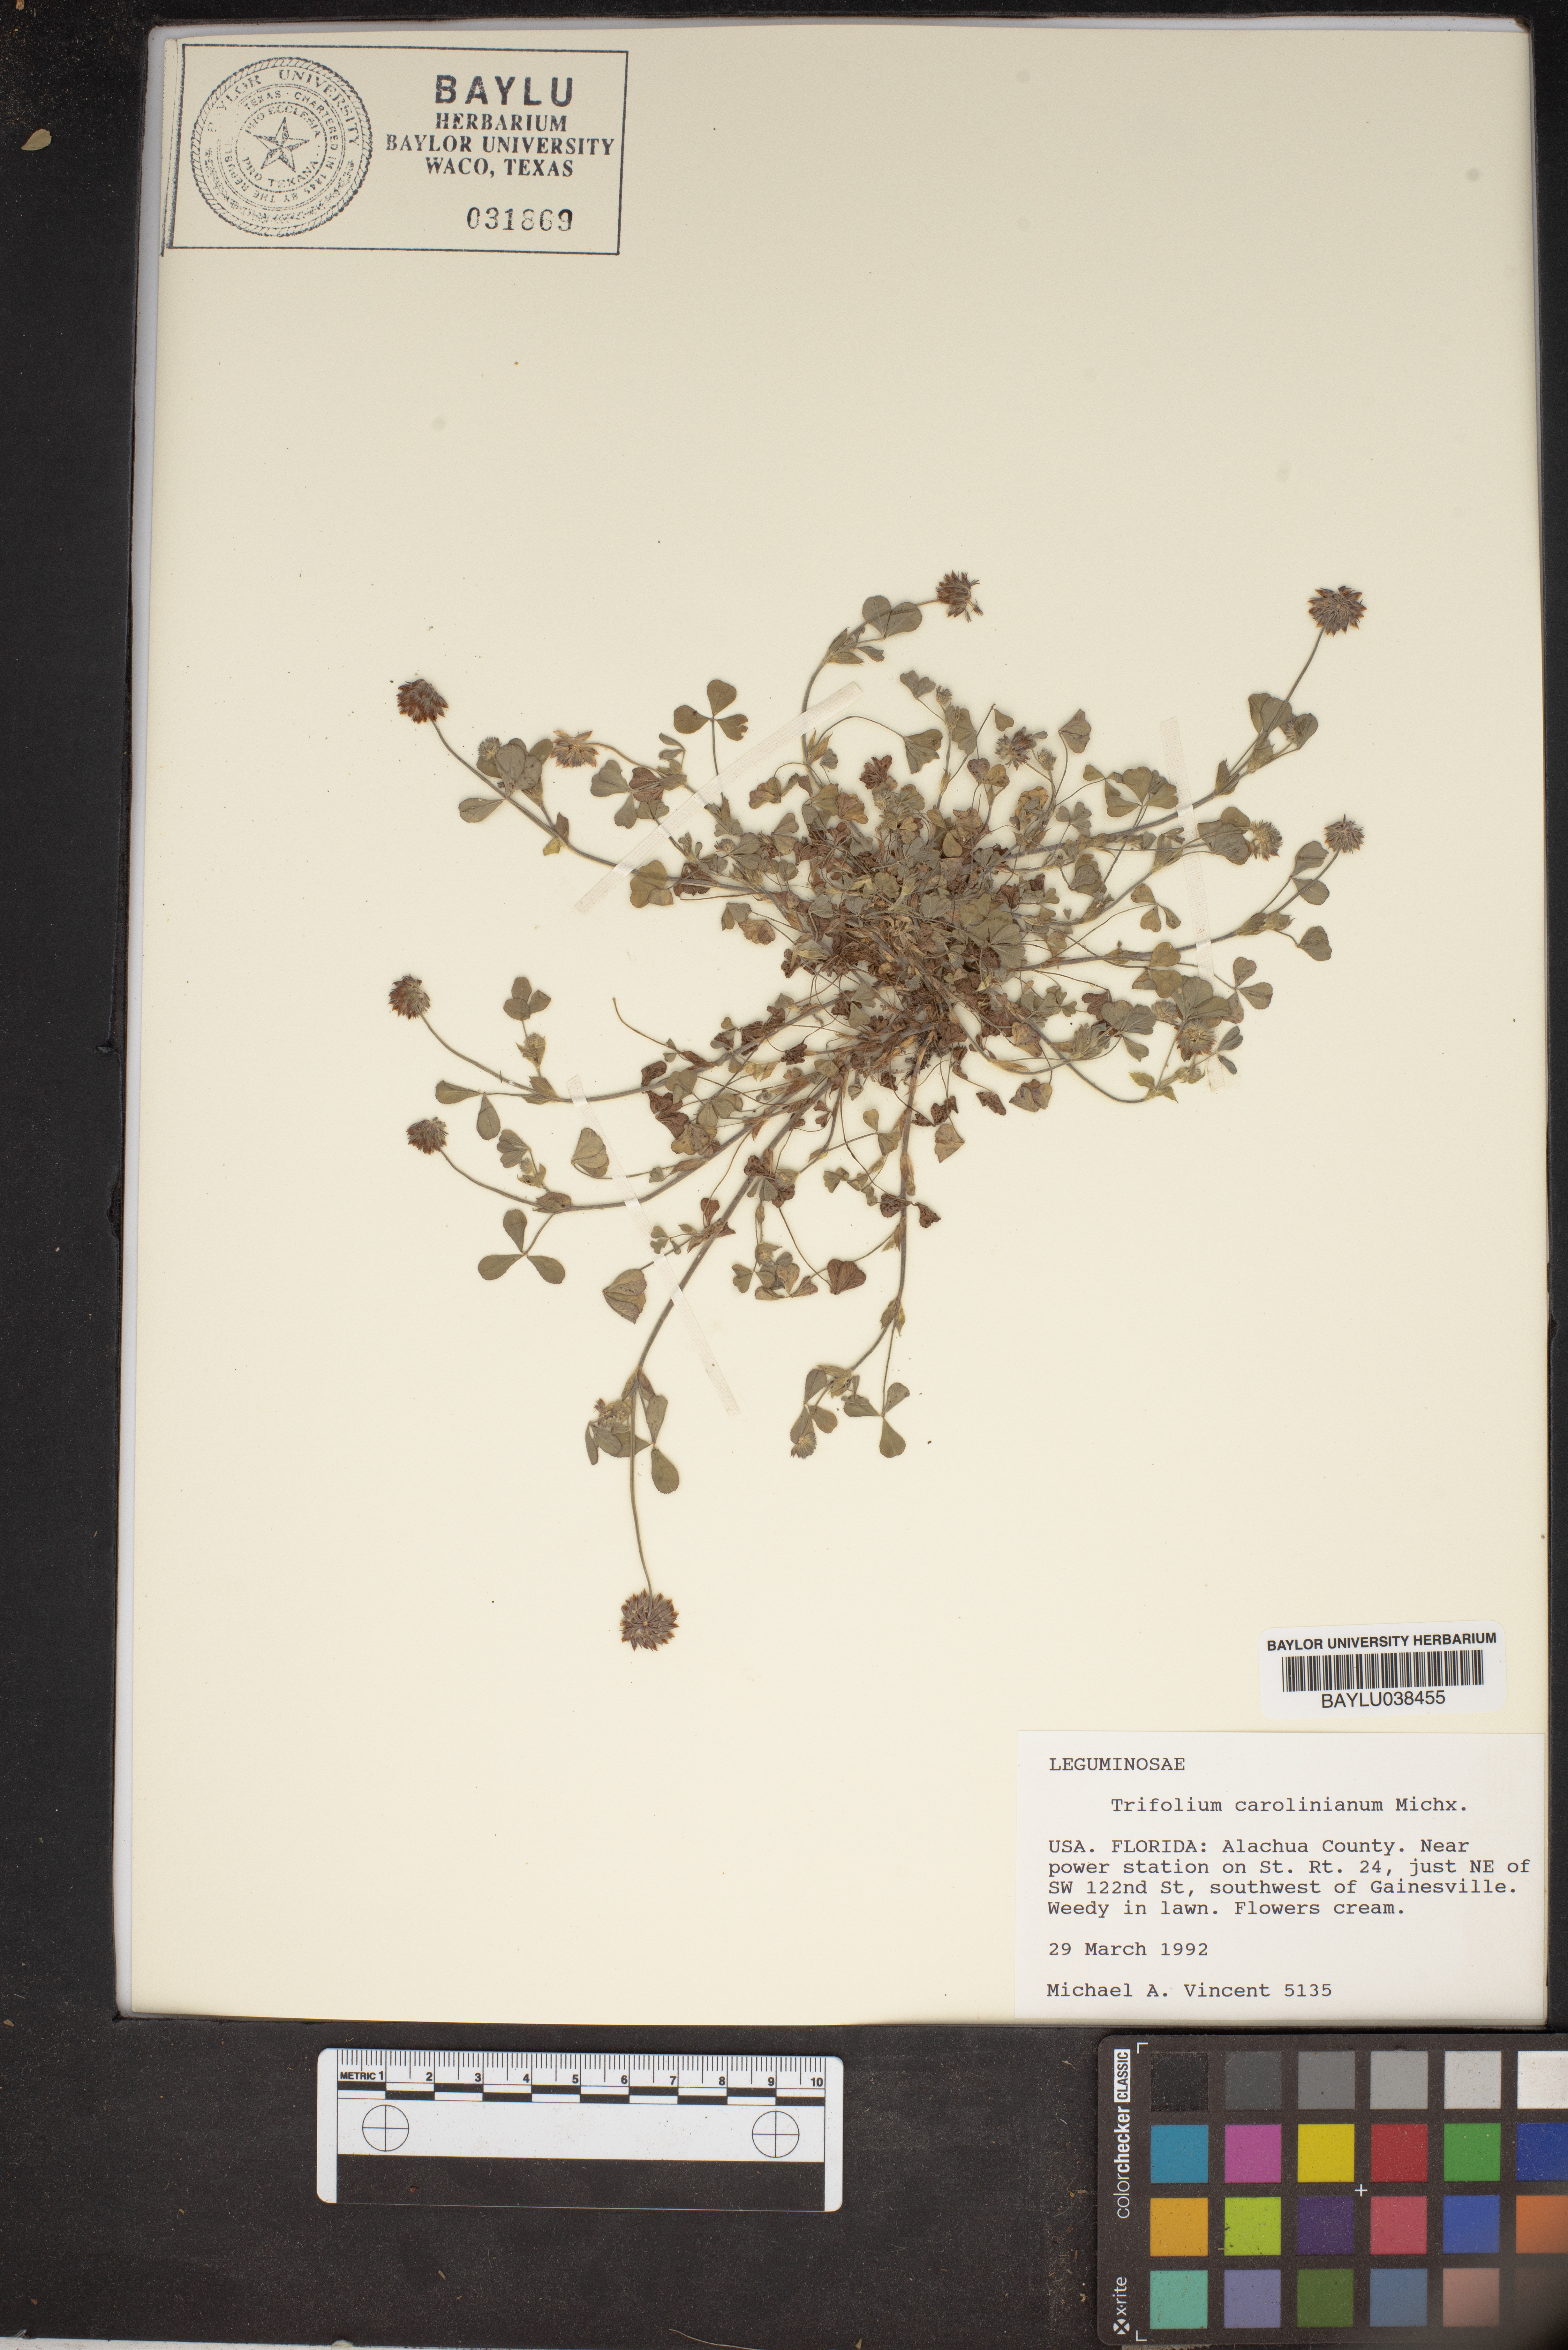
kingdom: Plantae
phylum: Tracheophyta
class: Magnoliopsida
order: Fabales
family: Fabaceae
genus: Trifolium
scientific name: Trifolium carolinianum
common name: Wild white clover
